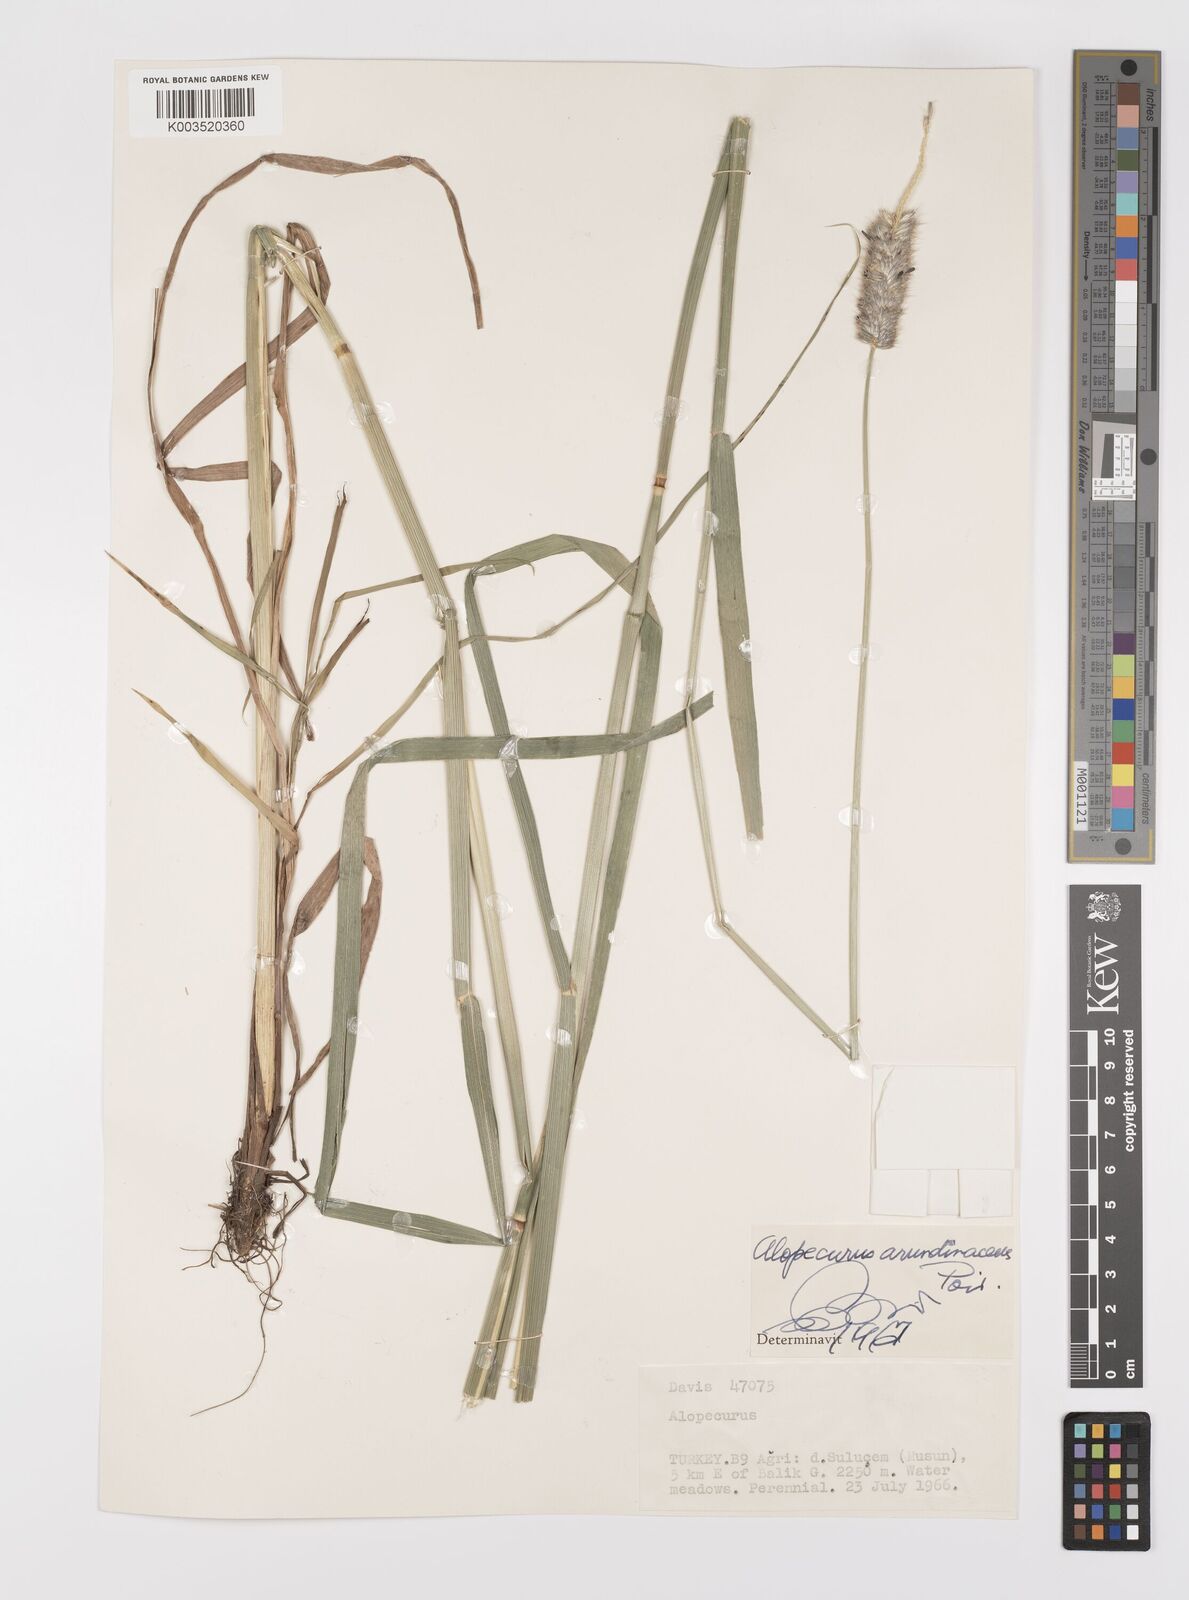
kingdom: Plantae
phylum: Tracheophyta
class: Liliopsida
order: Poales
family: Poaceae
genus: Alopecurus
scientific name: Alopecurus arundinaceus
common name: Creeping meadow foxtail
